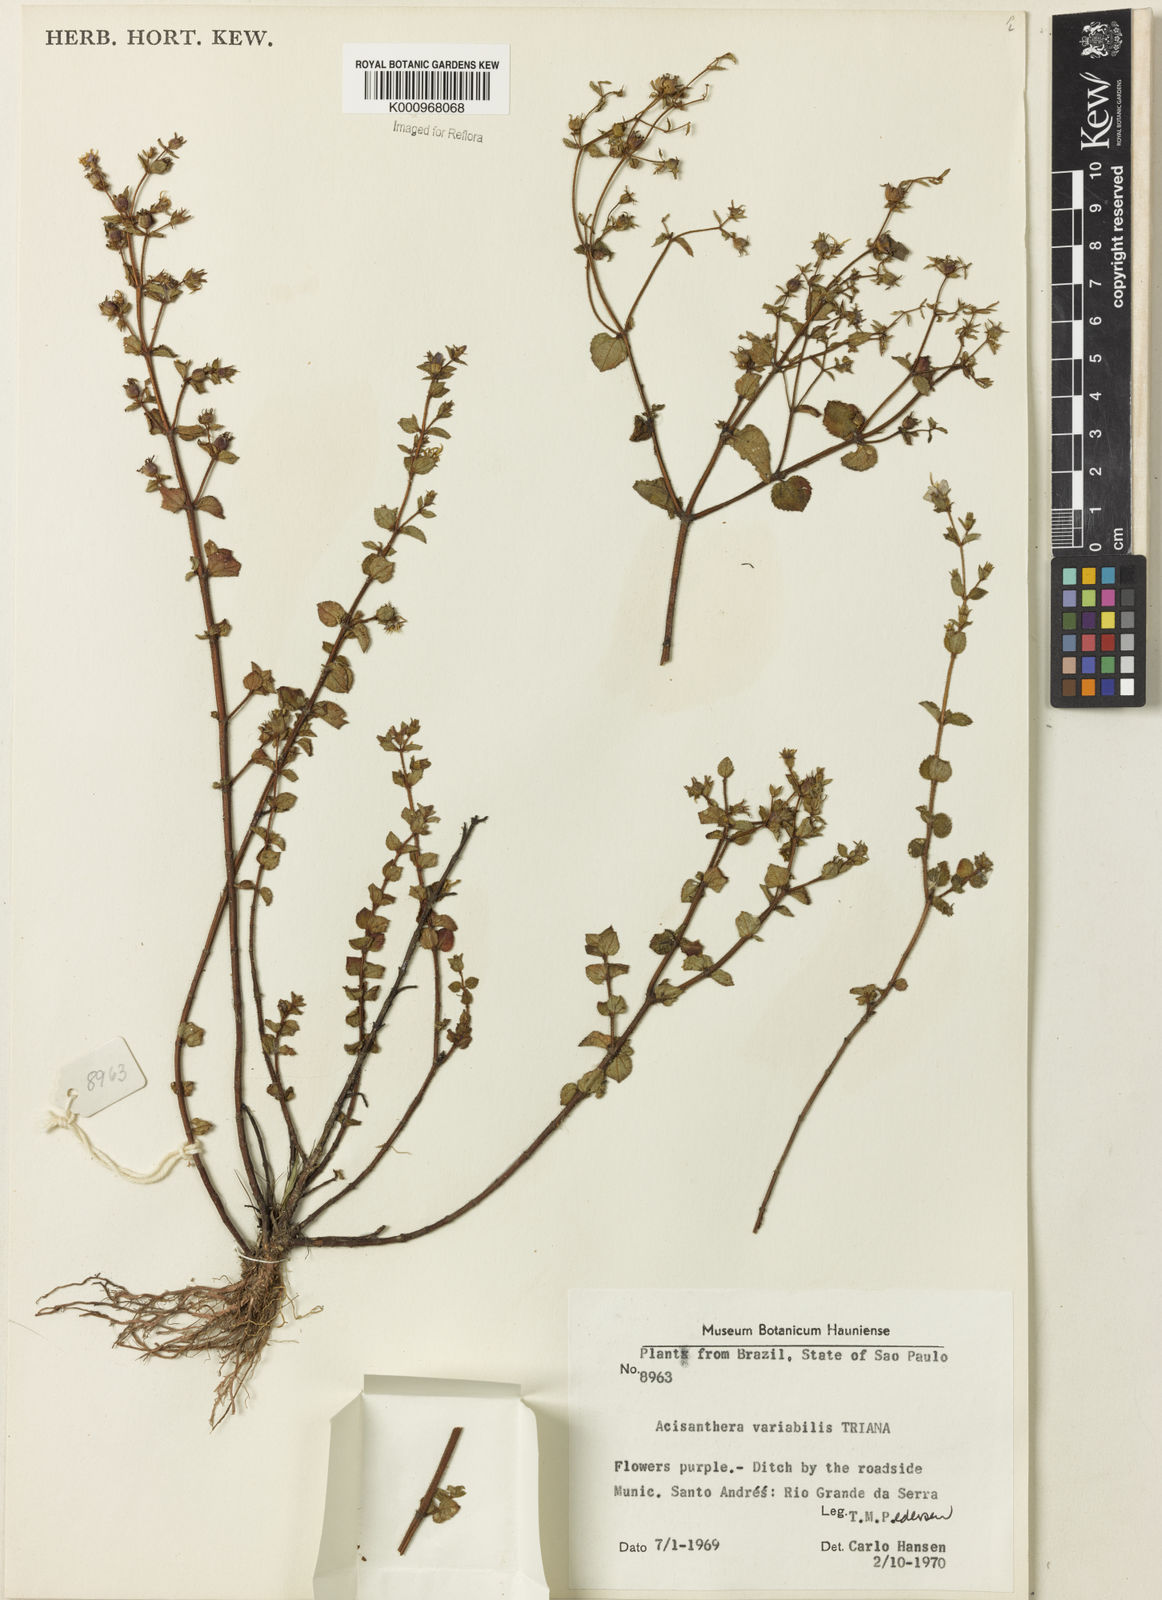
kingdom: Plantae
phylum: Tracheophyta
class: Magnoliopsida
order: Myrtales
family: Melastomataceae
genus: Acisanthera
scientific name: Acisanthera variabilis
